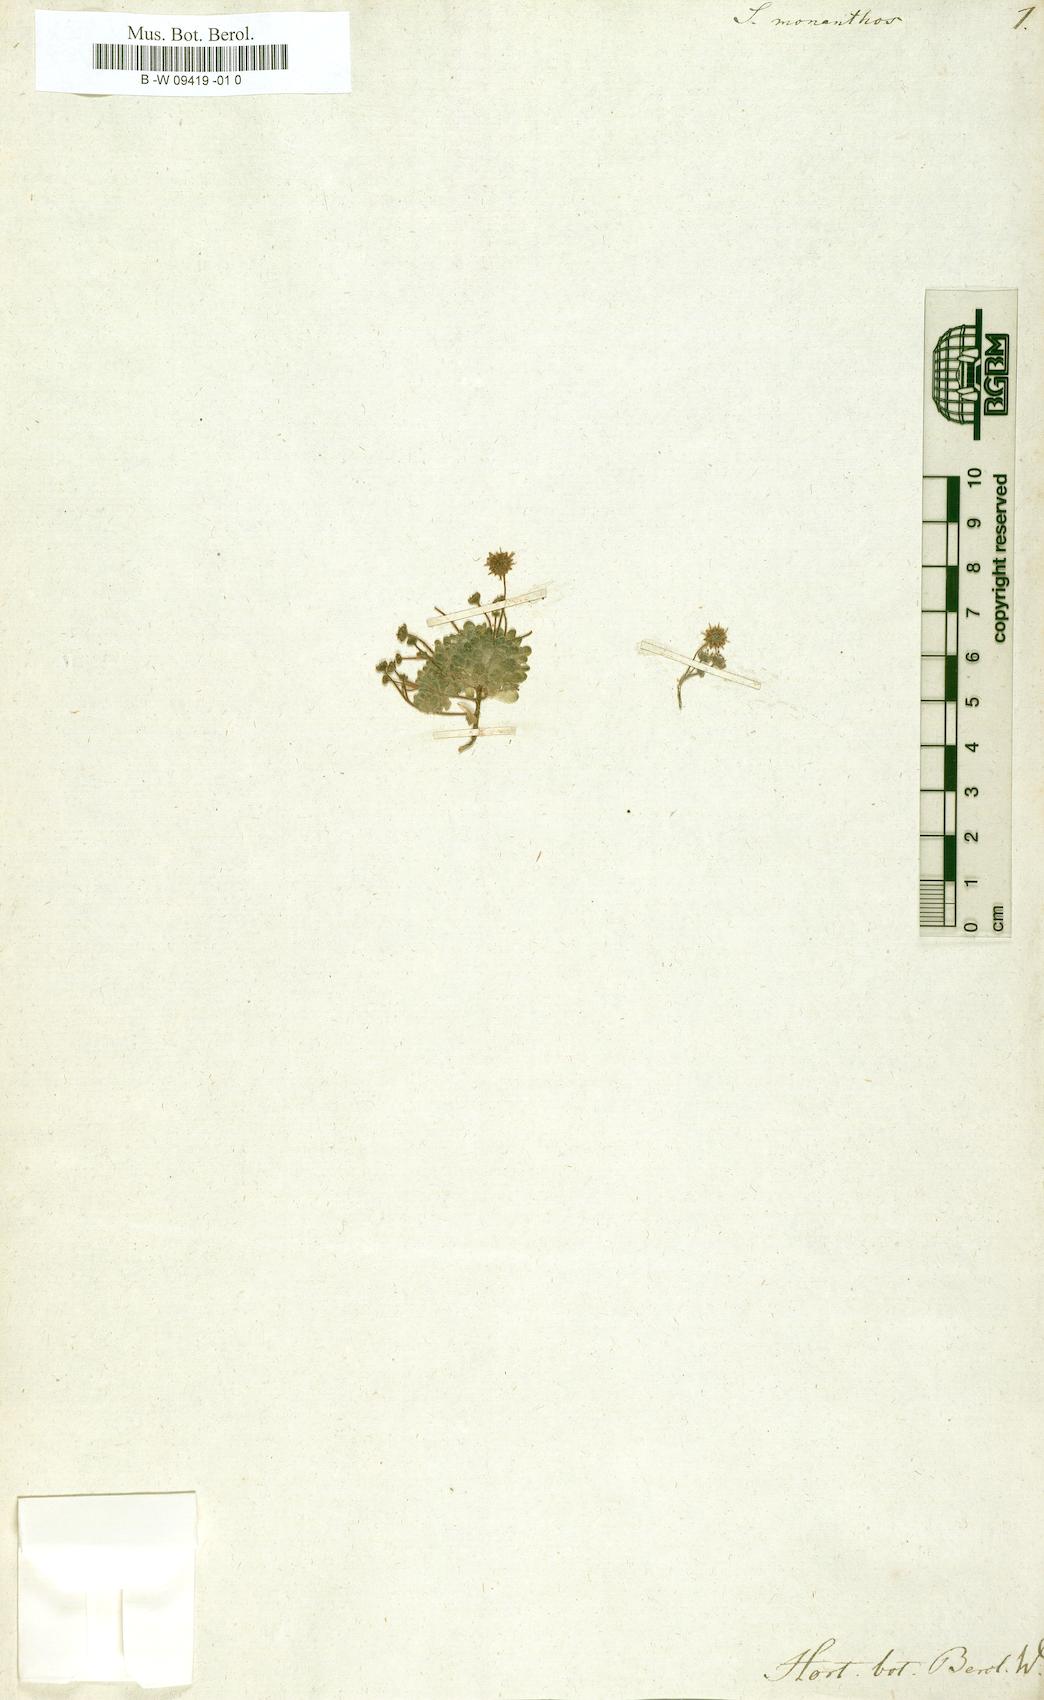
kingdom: Plantae
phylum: Tracheophyta
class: Magnoliopsida
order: Saxifragales
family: Crassulaceae
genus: Monanthes
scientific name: Monanthes polyphylla
